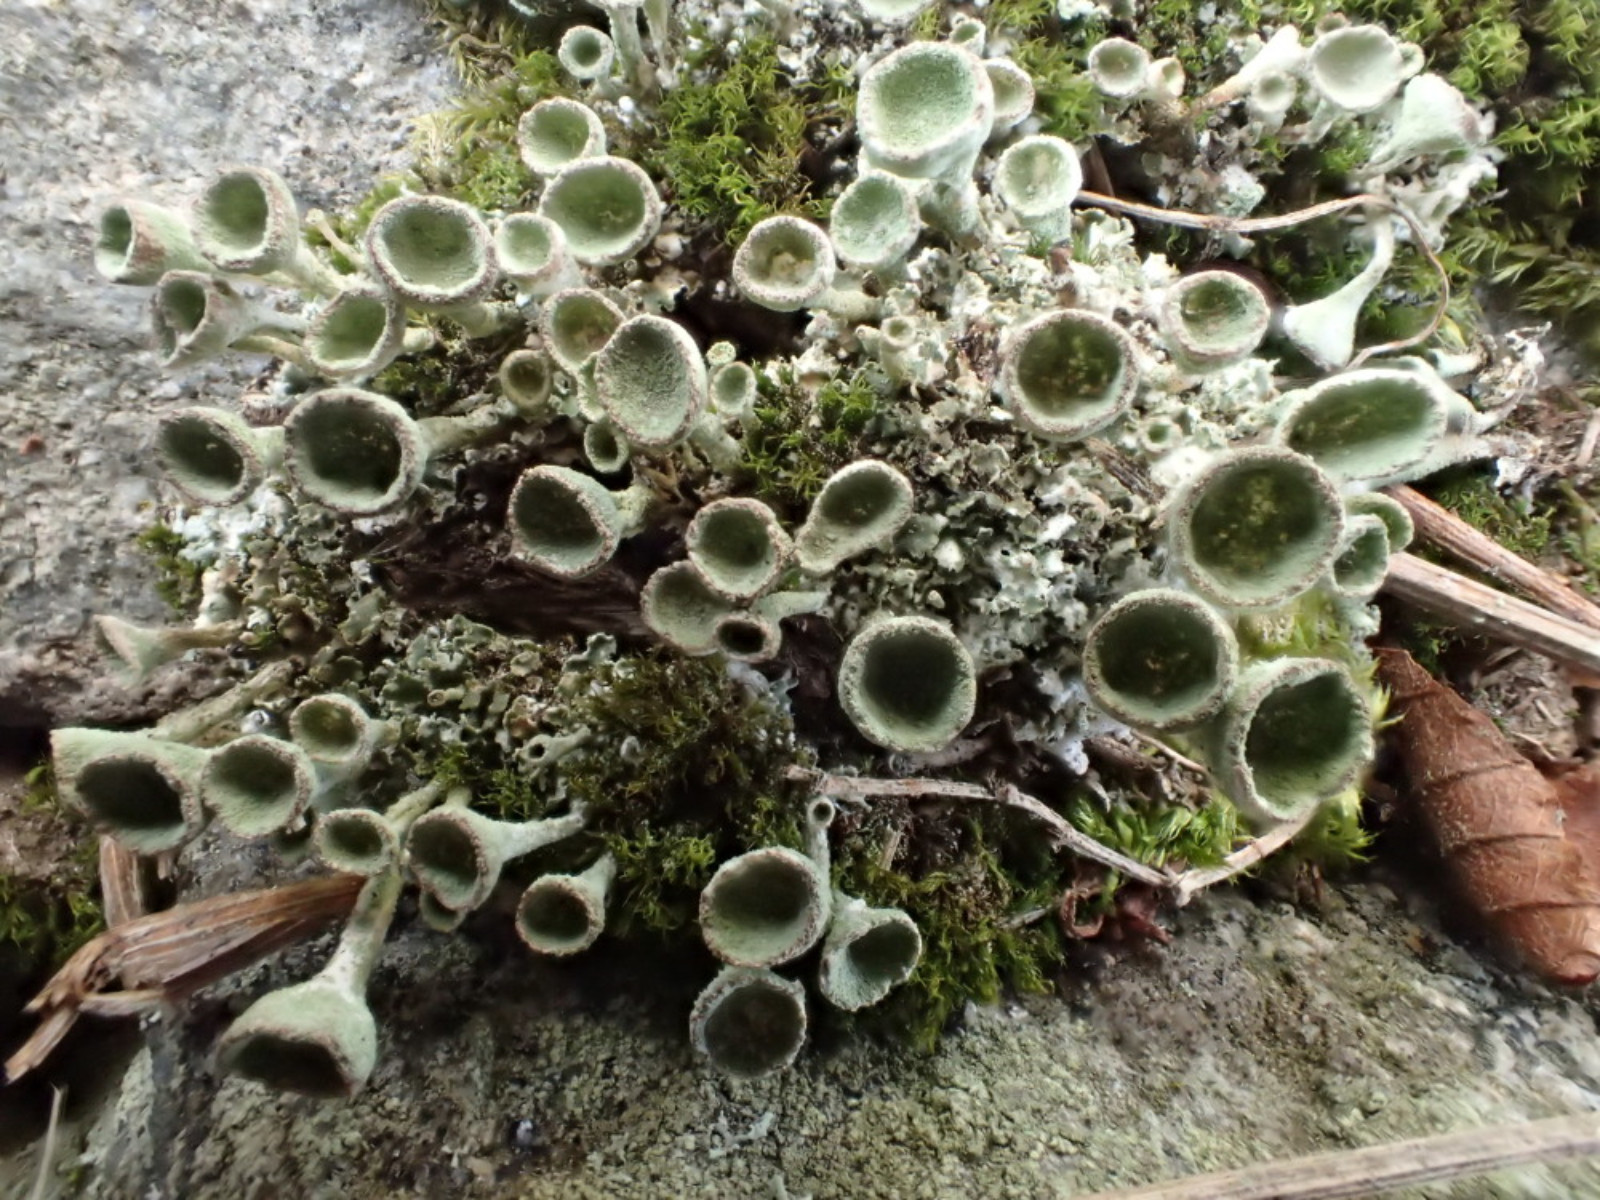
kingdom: Fungi
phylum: Ascomycota
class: Lecanoromycetes
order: Lecanorales
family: Cladoniaceae
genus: Cladonia
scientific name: Cladonia fimbriata
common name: bleggrøn bægerlav
